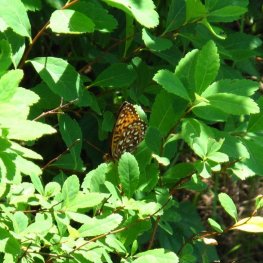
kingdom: Animalia
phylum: Arthropoda
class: Insecta
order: Lepidoptera
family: Nymphalidae
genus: Speyeria
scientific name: Speyeria atlantis
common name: Atlantis Fritillary
